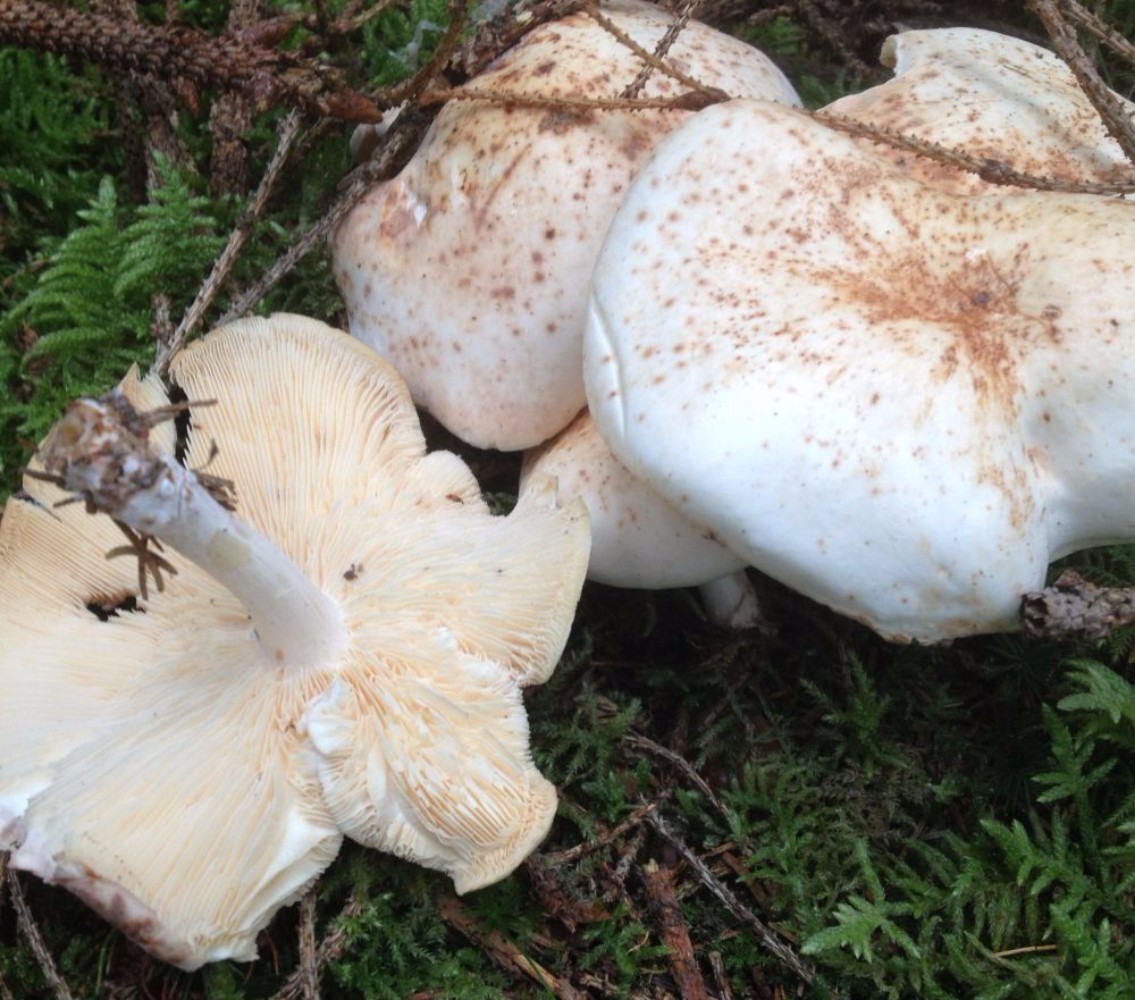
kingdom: Fungi
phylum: Basidiomycota
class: Agaricomycetes
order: Agaricales
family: Omphalotaceae
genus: Rhodocollybia
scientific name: Rhodocollybia maculata
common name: plettet fladhat
